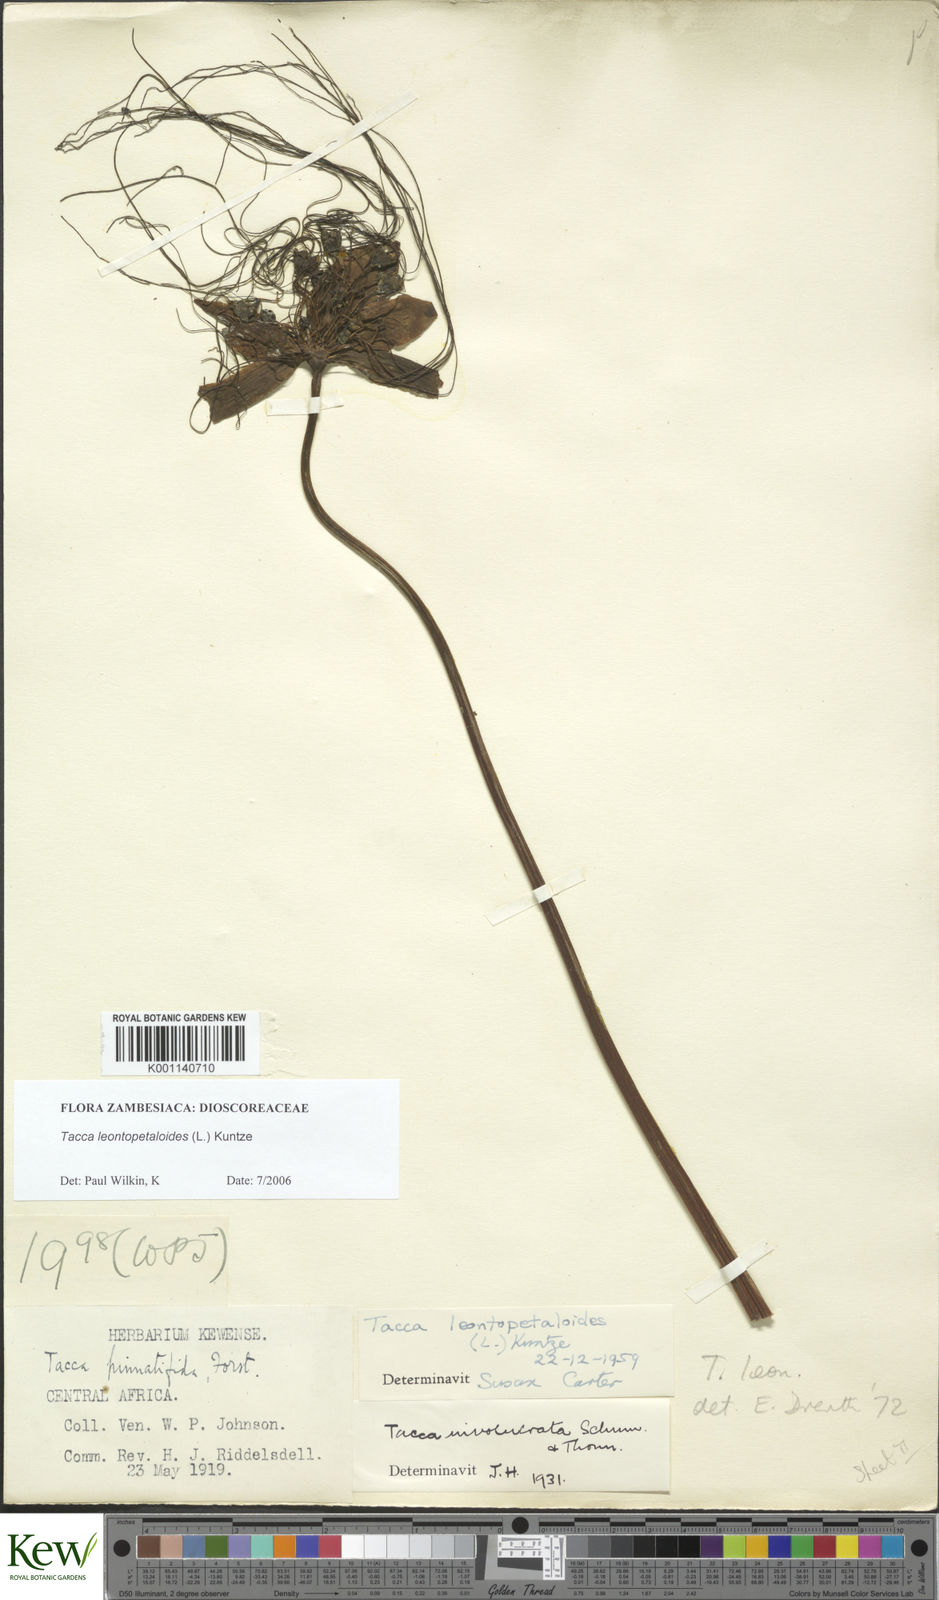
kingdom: Plantae
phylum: Tracheophyta
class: Liliopsida
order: Dioscoreales
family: Dioscoreaceae
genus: Tacca
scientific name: Tacca leontopetaloides
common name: Arrowroot
